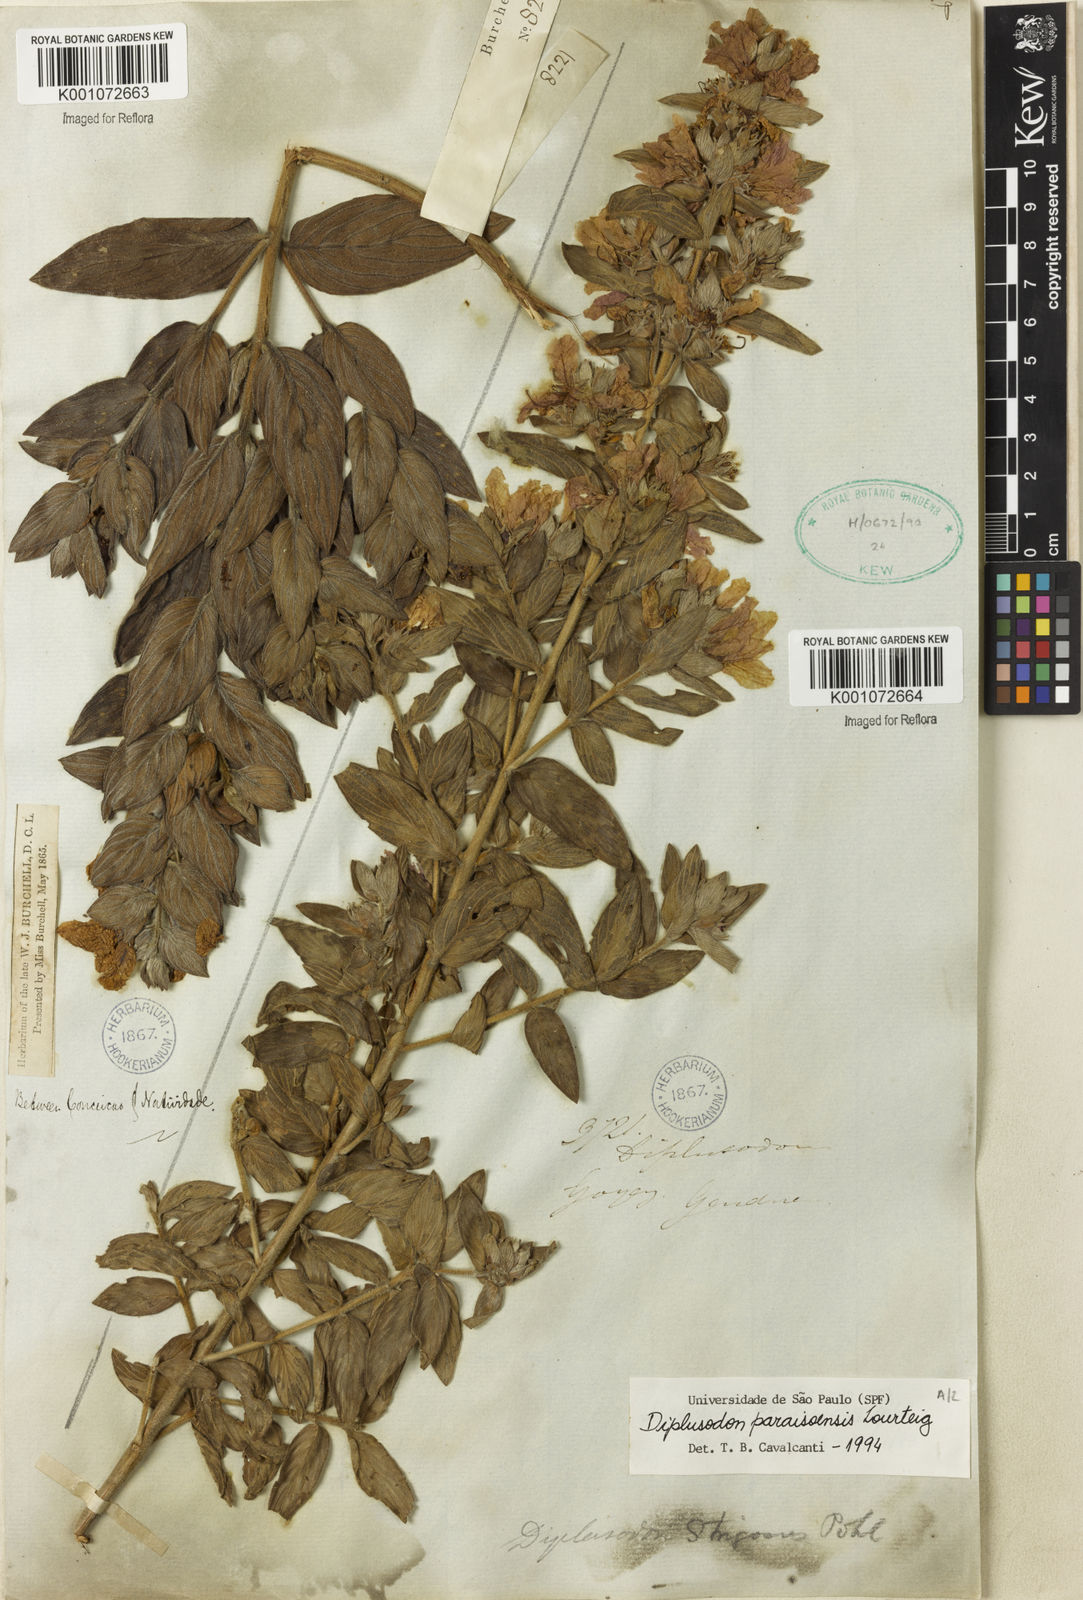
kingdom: Plantae
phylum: Tracheophyta
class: Magnoliopsida
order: Myrtales
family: Lythraceae
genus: Diplusodon
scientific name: Diplusodon paraisoensis
